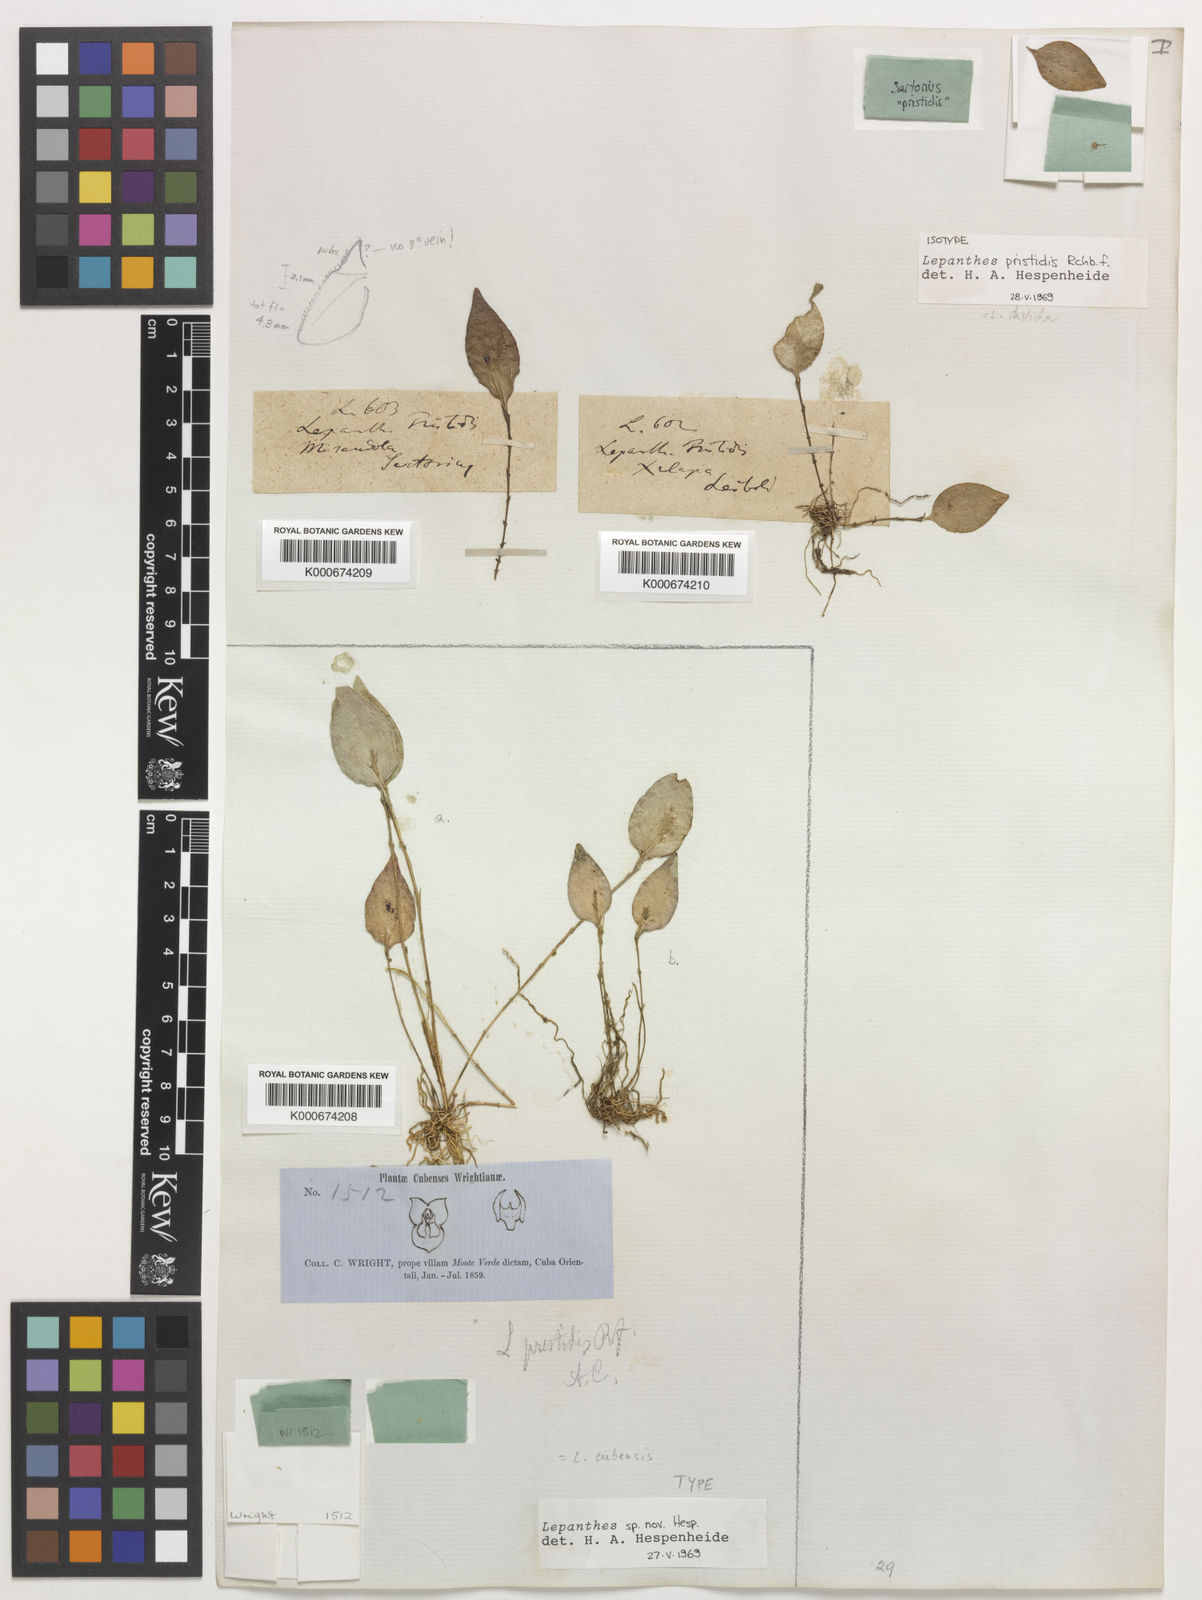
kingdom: Plantae
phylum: Tracheophyta
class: Liliopsida
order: Asparagales
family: Orchidaceae
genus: Lepanthes
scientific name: Lepanthes pristidis
